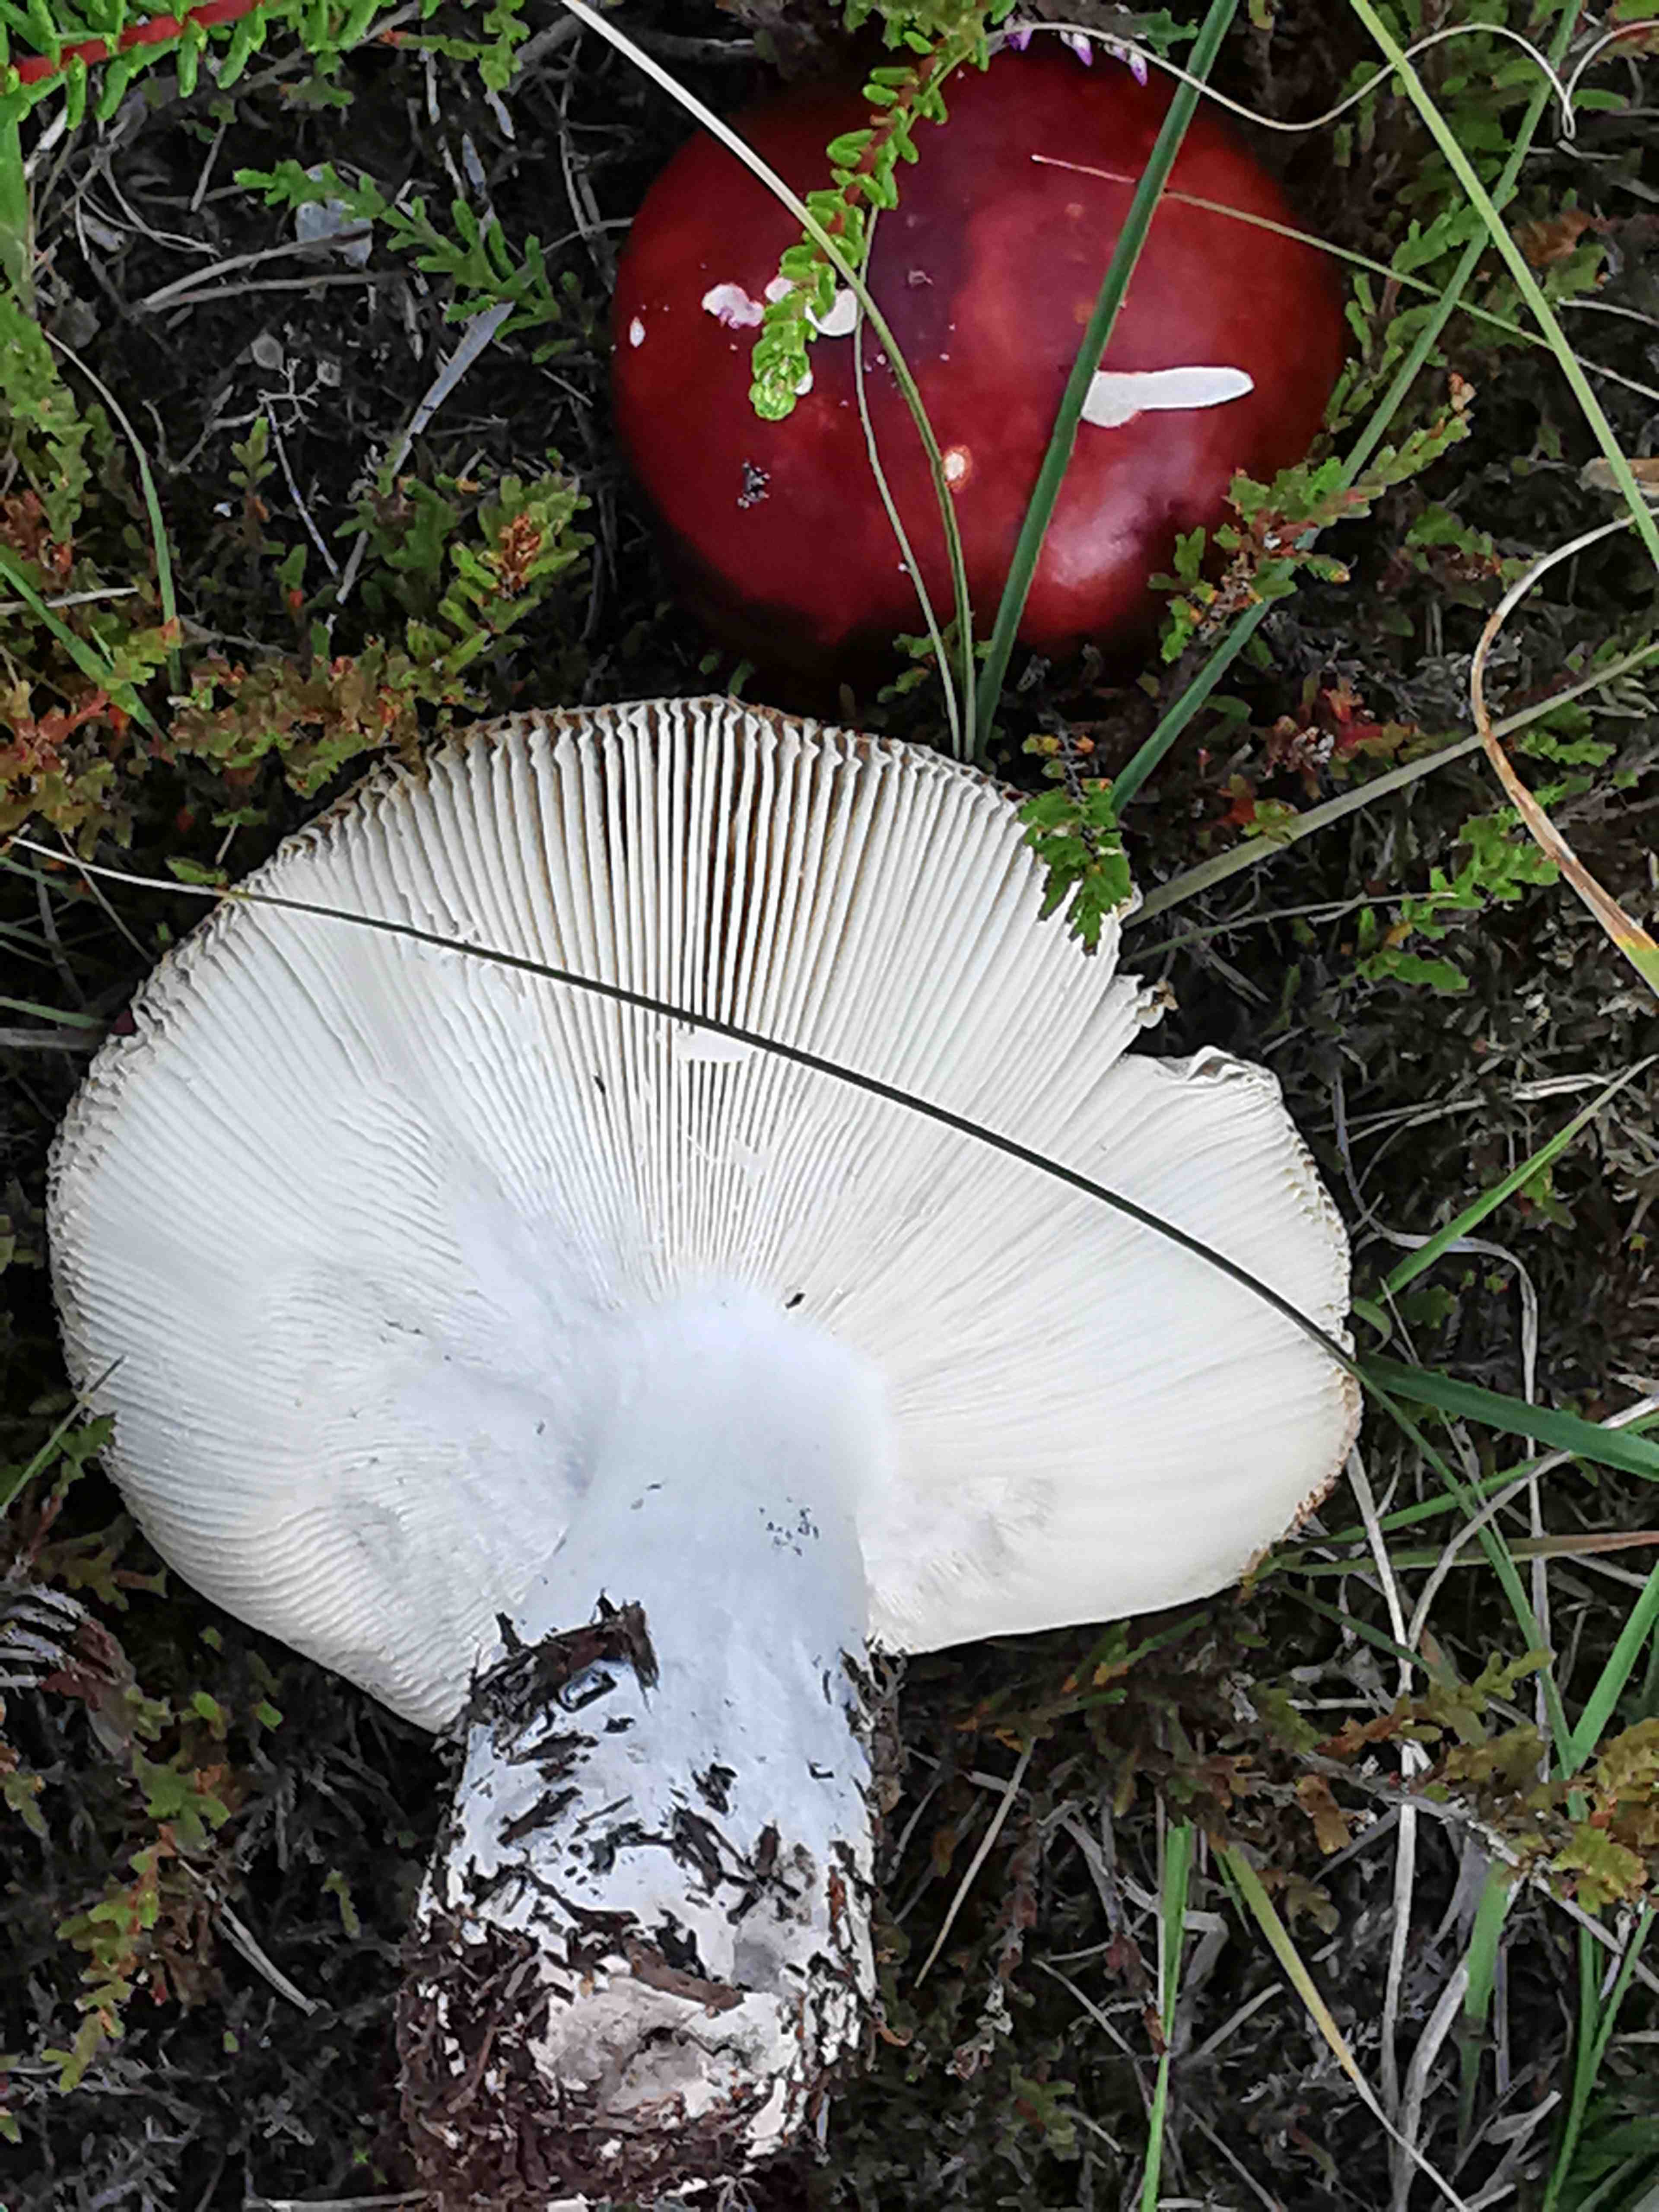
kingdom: Fungi
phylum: Basidiomycota
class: Agaricomycetes
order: Russulales
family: Russulaceae
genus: Russula
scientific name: Russula paludosa
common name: prægtig skørhat
